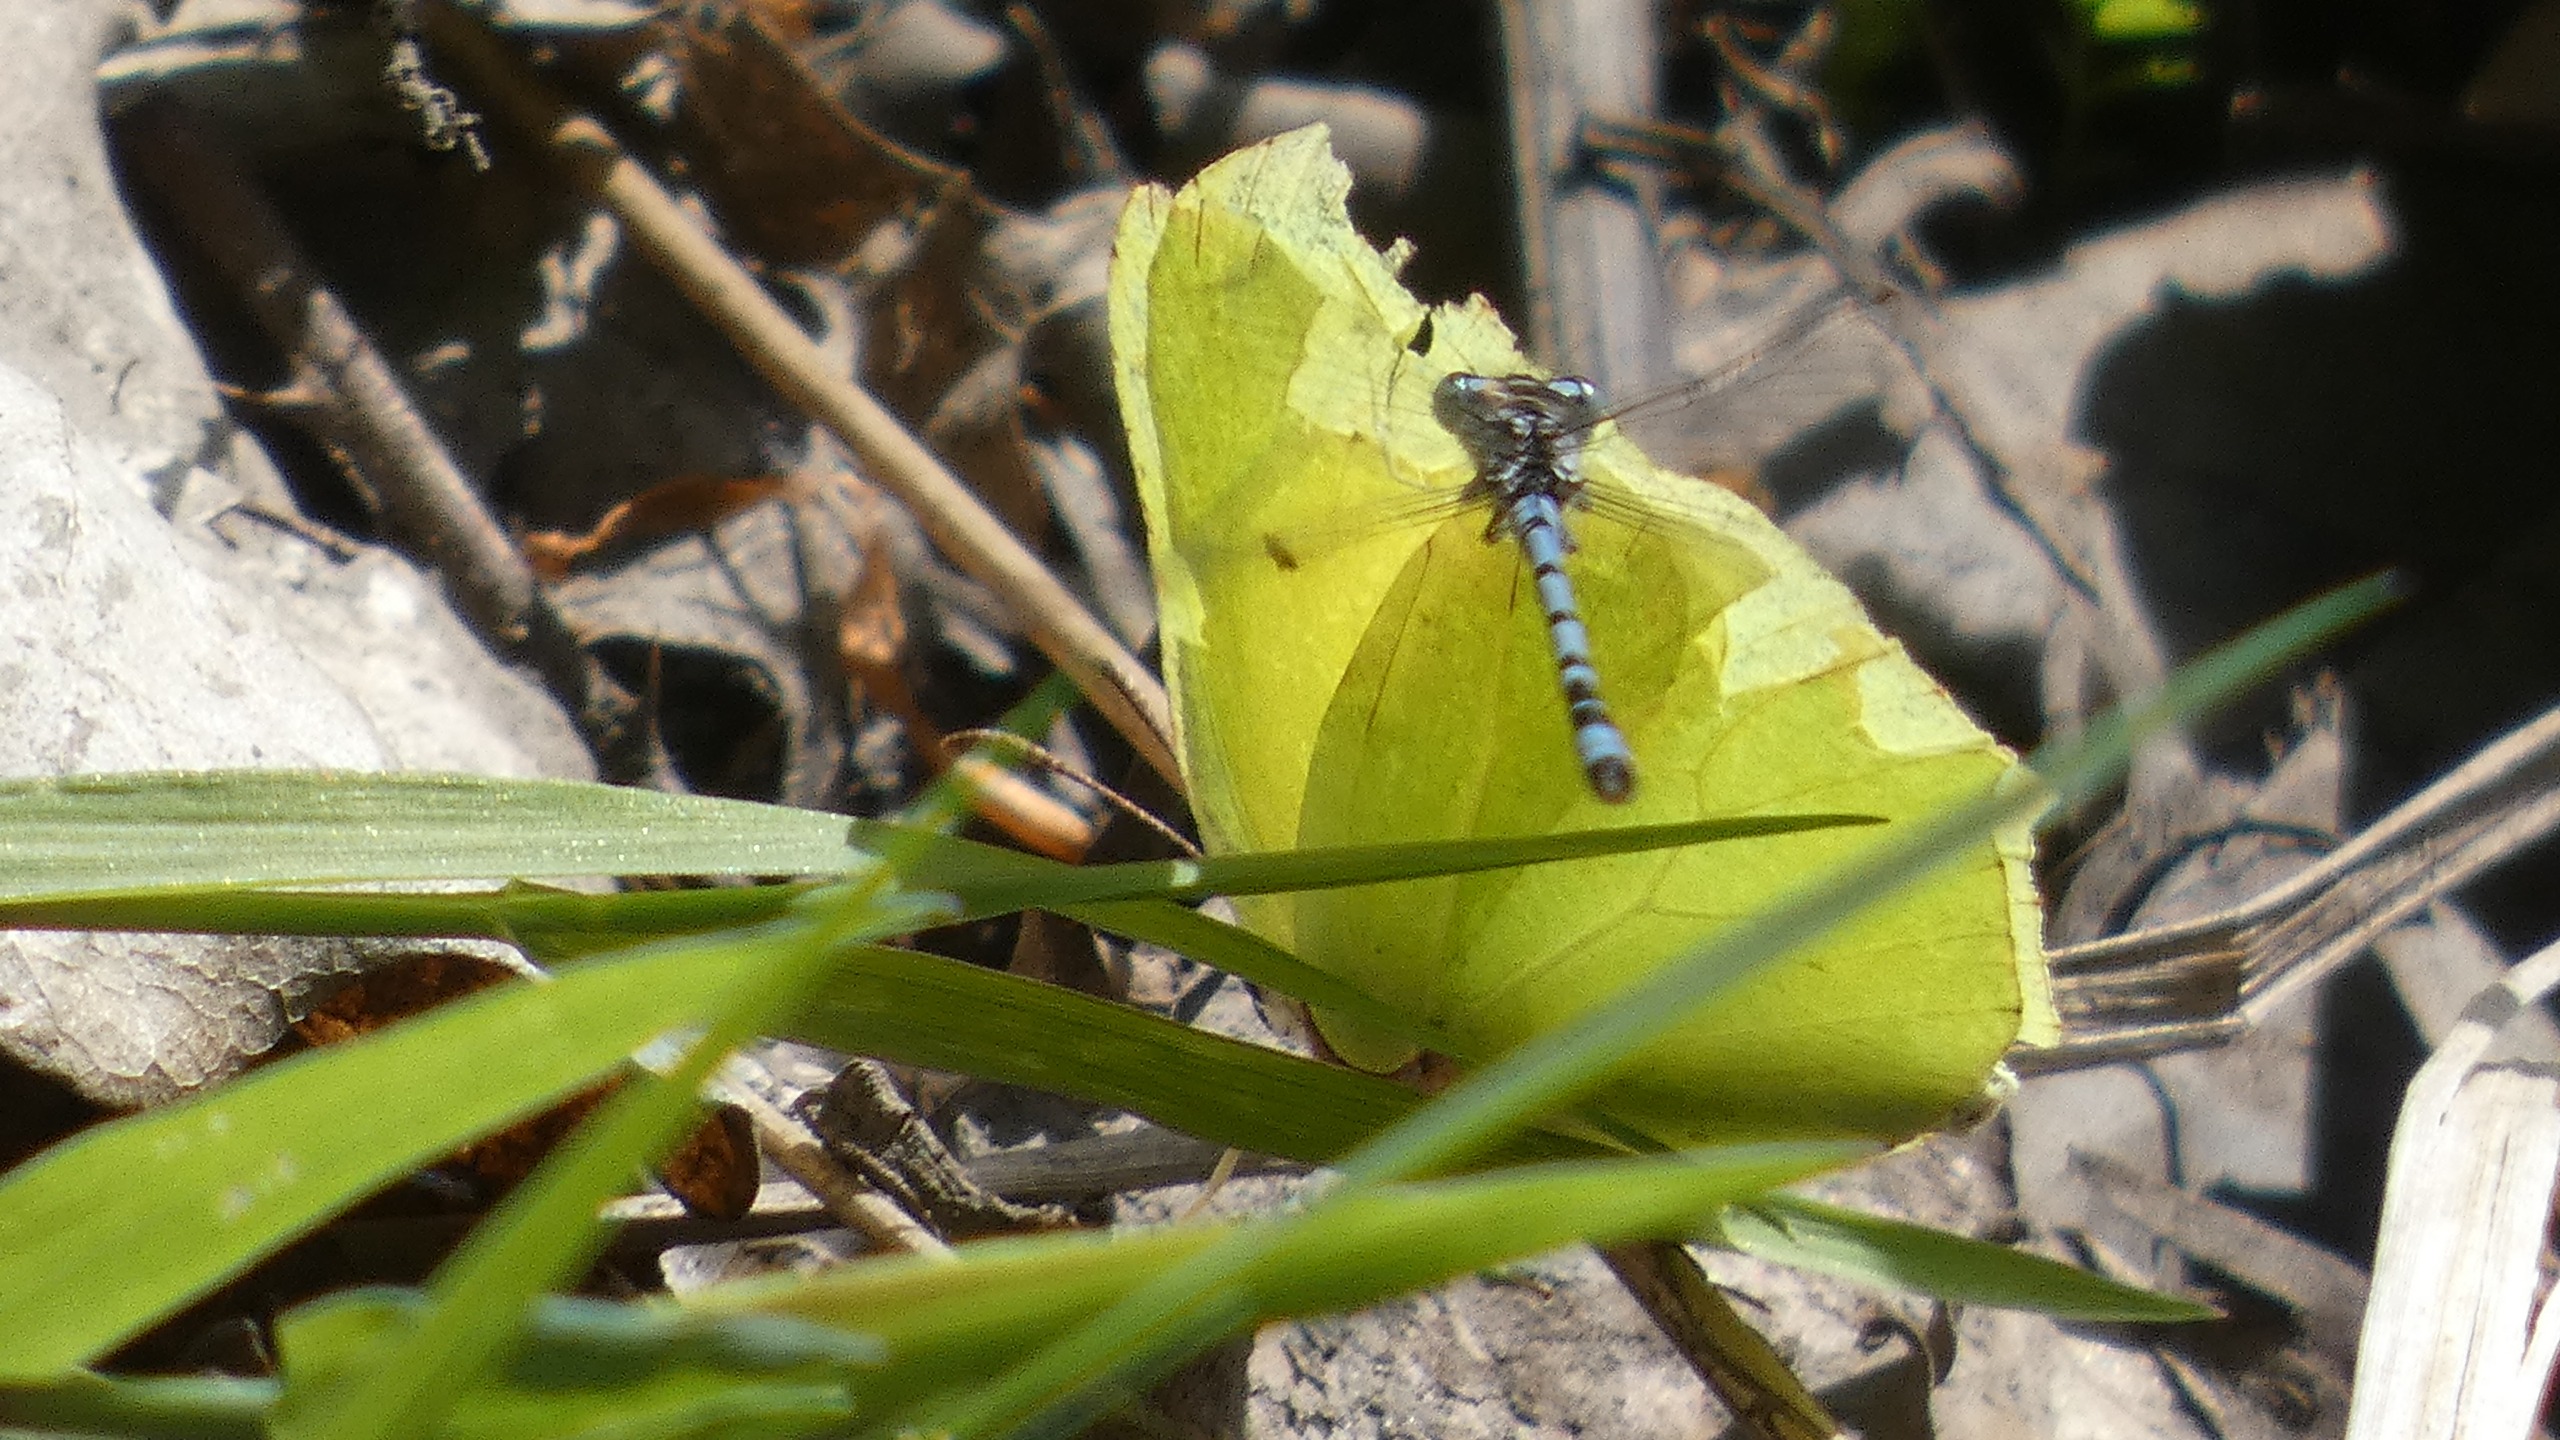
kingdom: Animalia
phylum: Arthropoda
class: Insecta
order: Lepidoptera
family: Pieridae
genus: Gonepteryx
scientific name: Gonepteryx rhamni
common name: Citronsommerfugl
